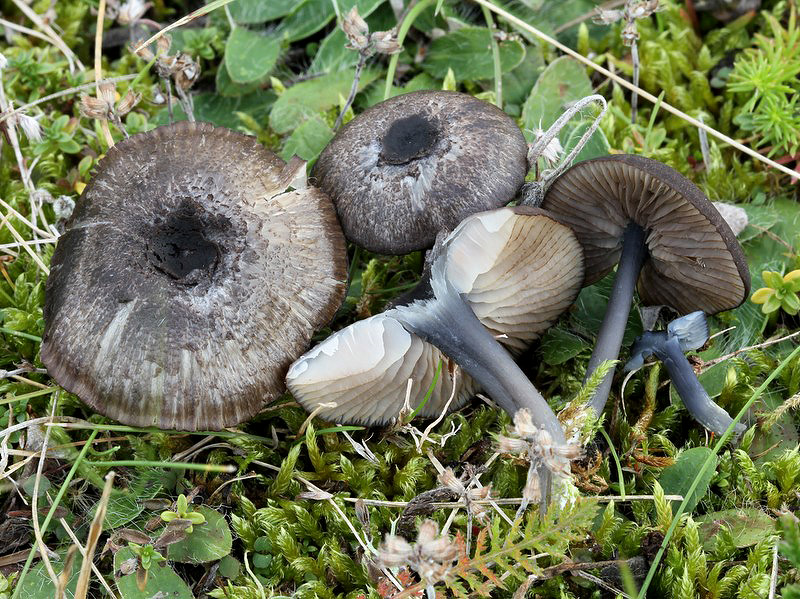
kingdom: Fungi
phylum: Basidiomycota
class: Agaricomycetes
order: Agaricales
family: Entolomataceae
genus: Entoloma
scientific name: Entoloma chalybeum
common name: blåbladet rødblad
